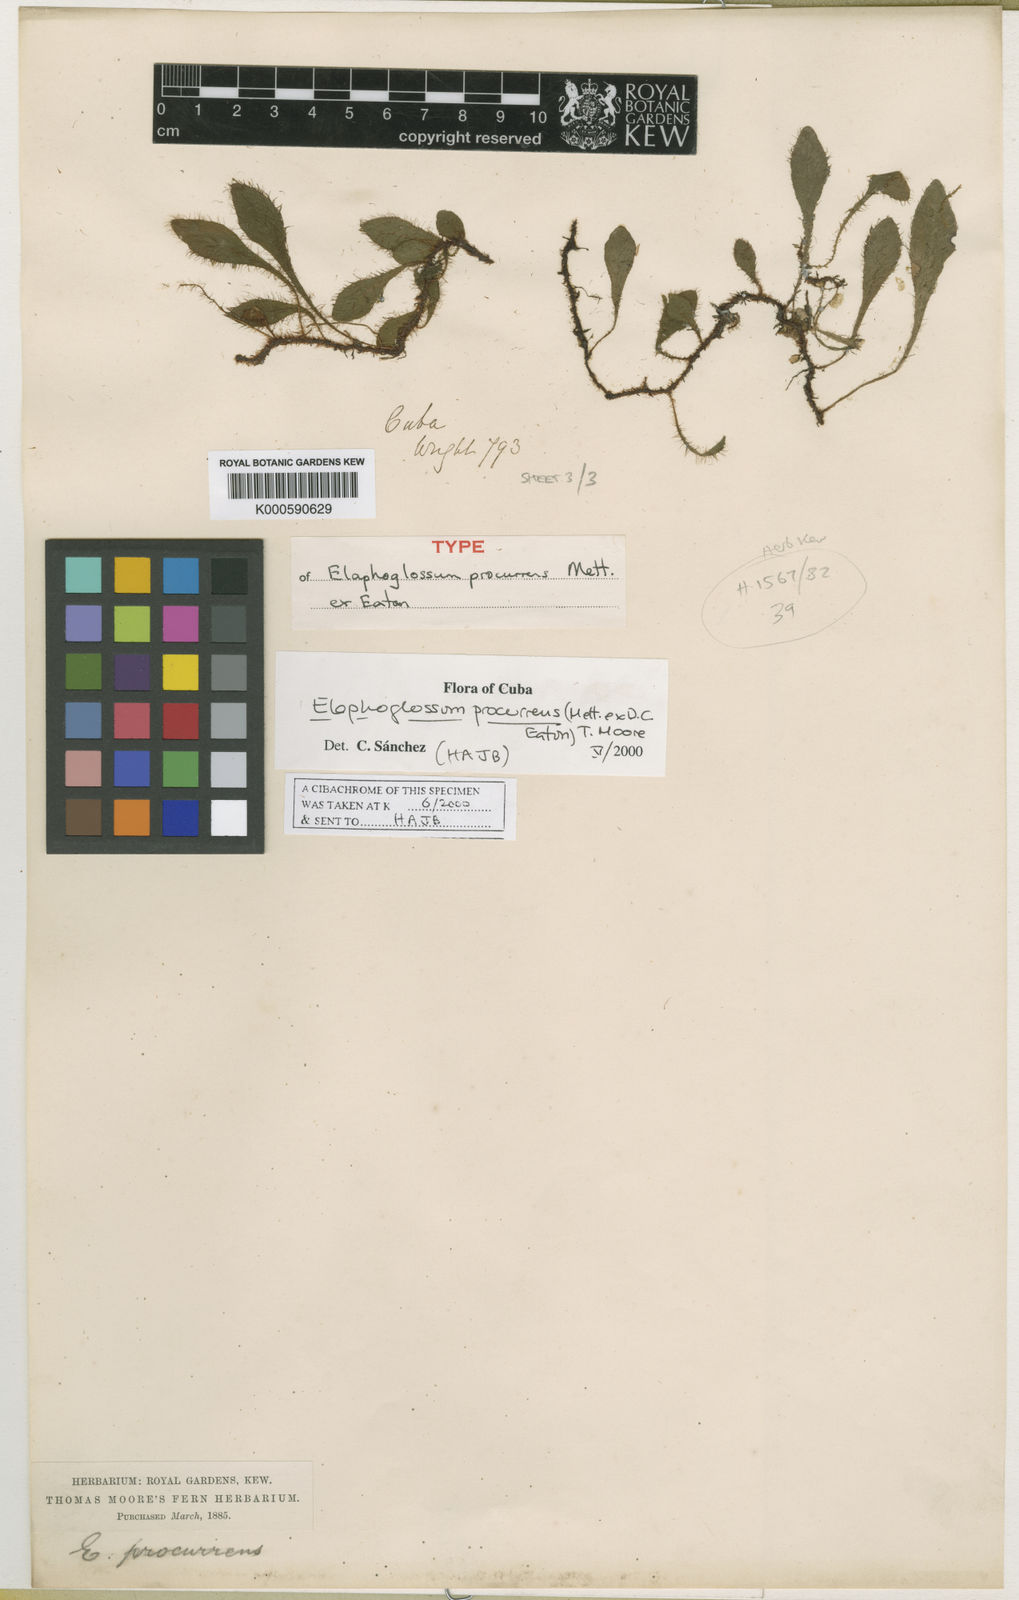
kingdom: Plantae
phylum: Tracheophyta
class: Polypodiopsida
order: Polypodiales
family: Dryopteridaceae
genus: Elaphoglossum
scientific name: Elaphoglossum procurrens
